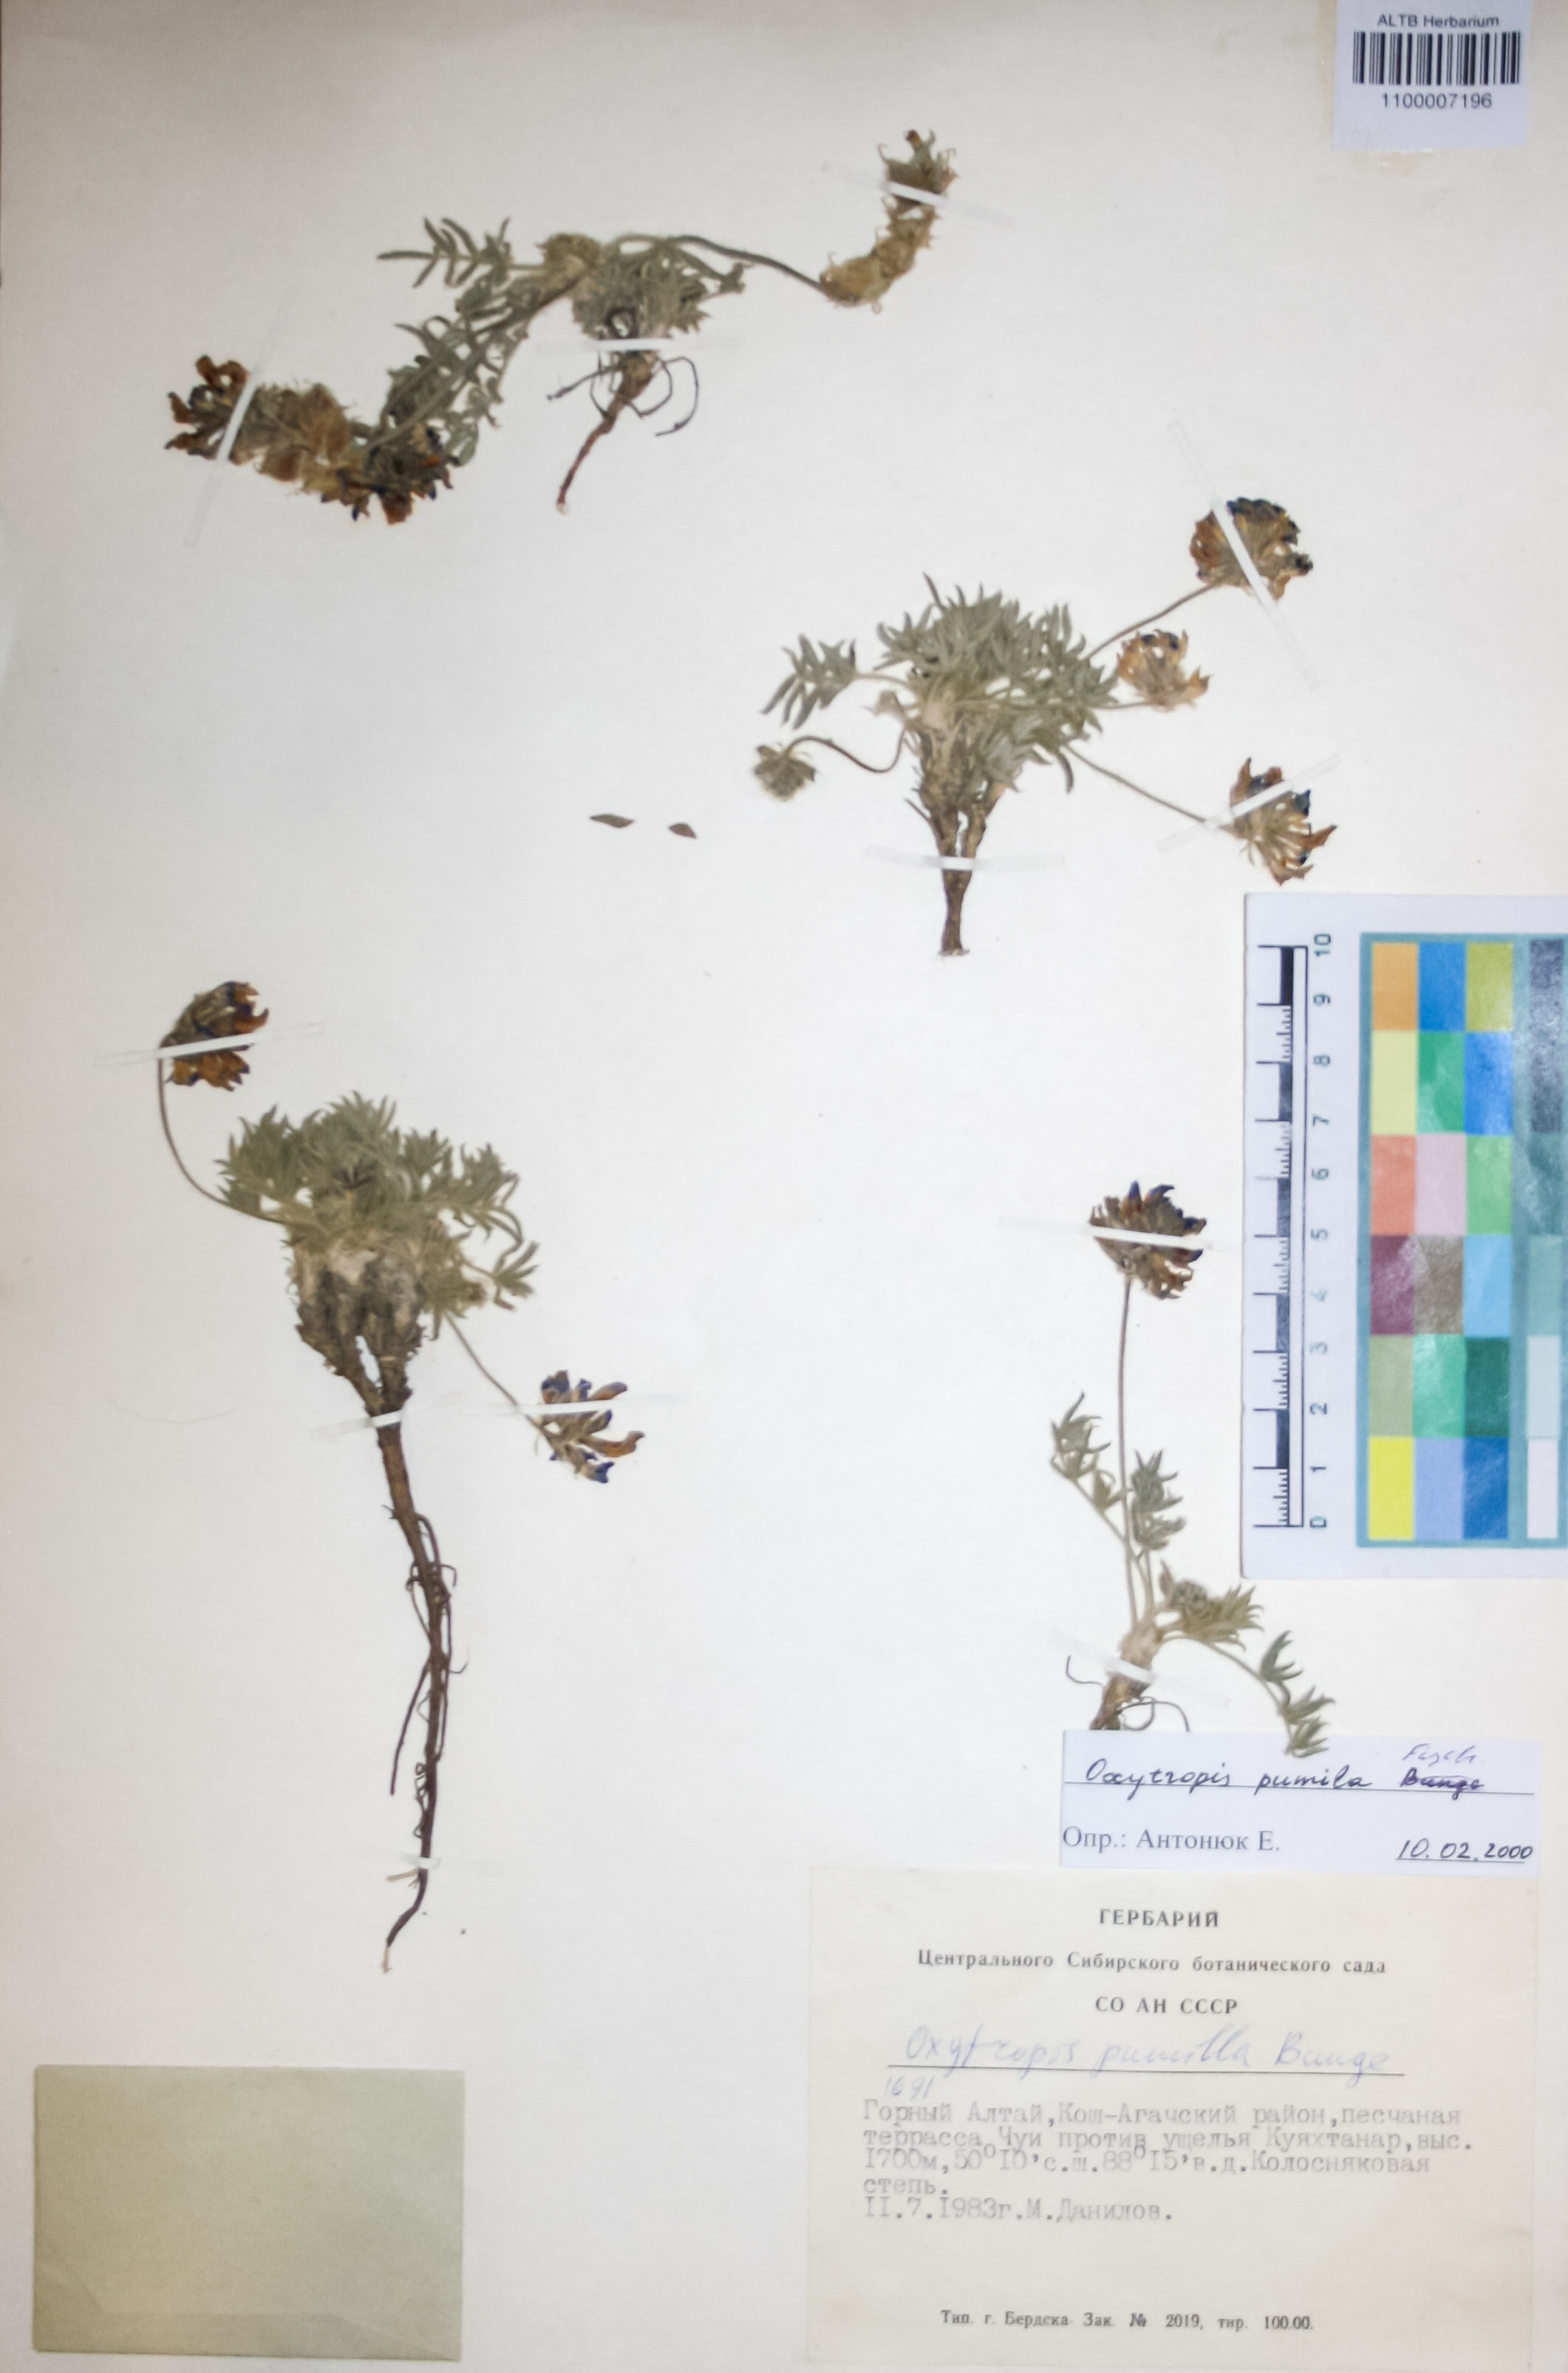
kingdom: Plantae
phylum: Tracheophyta
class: Magnoliopsida
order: Fabales
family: Fabaceae
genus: Oxytropis
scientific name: Oxytropis pumila
